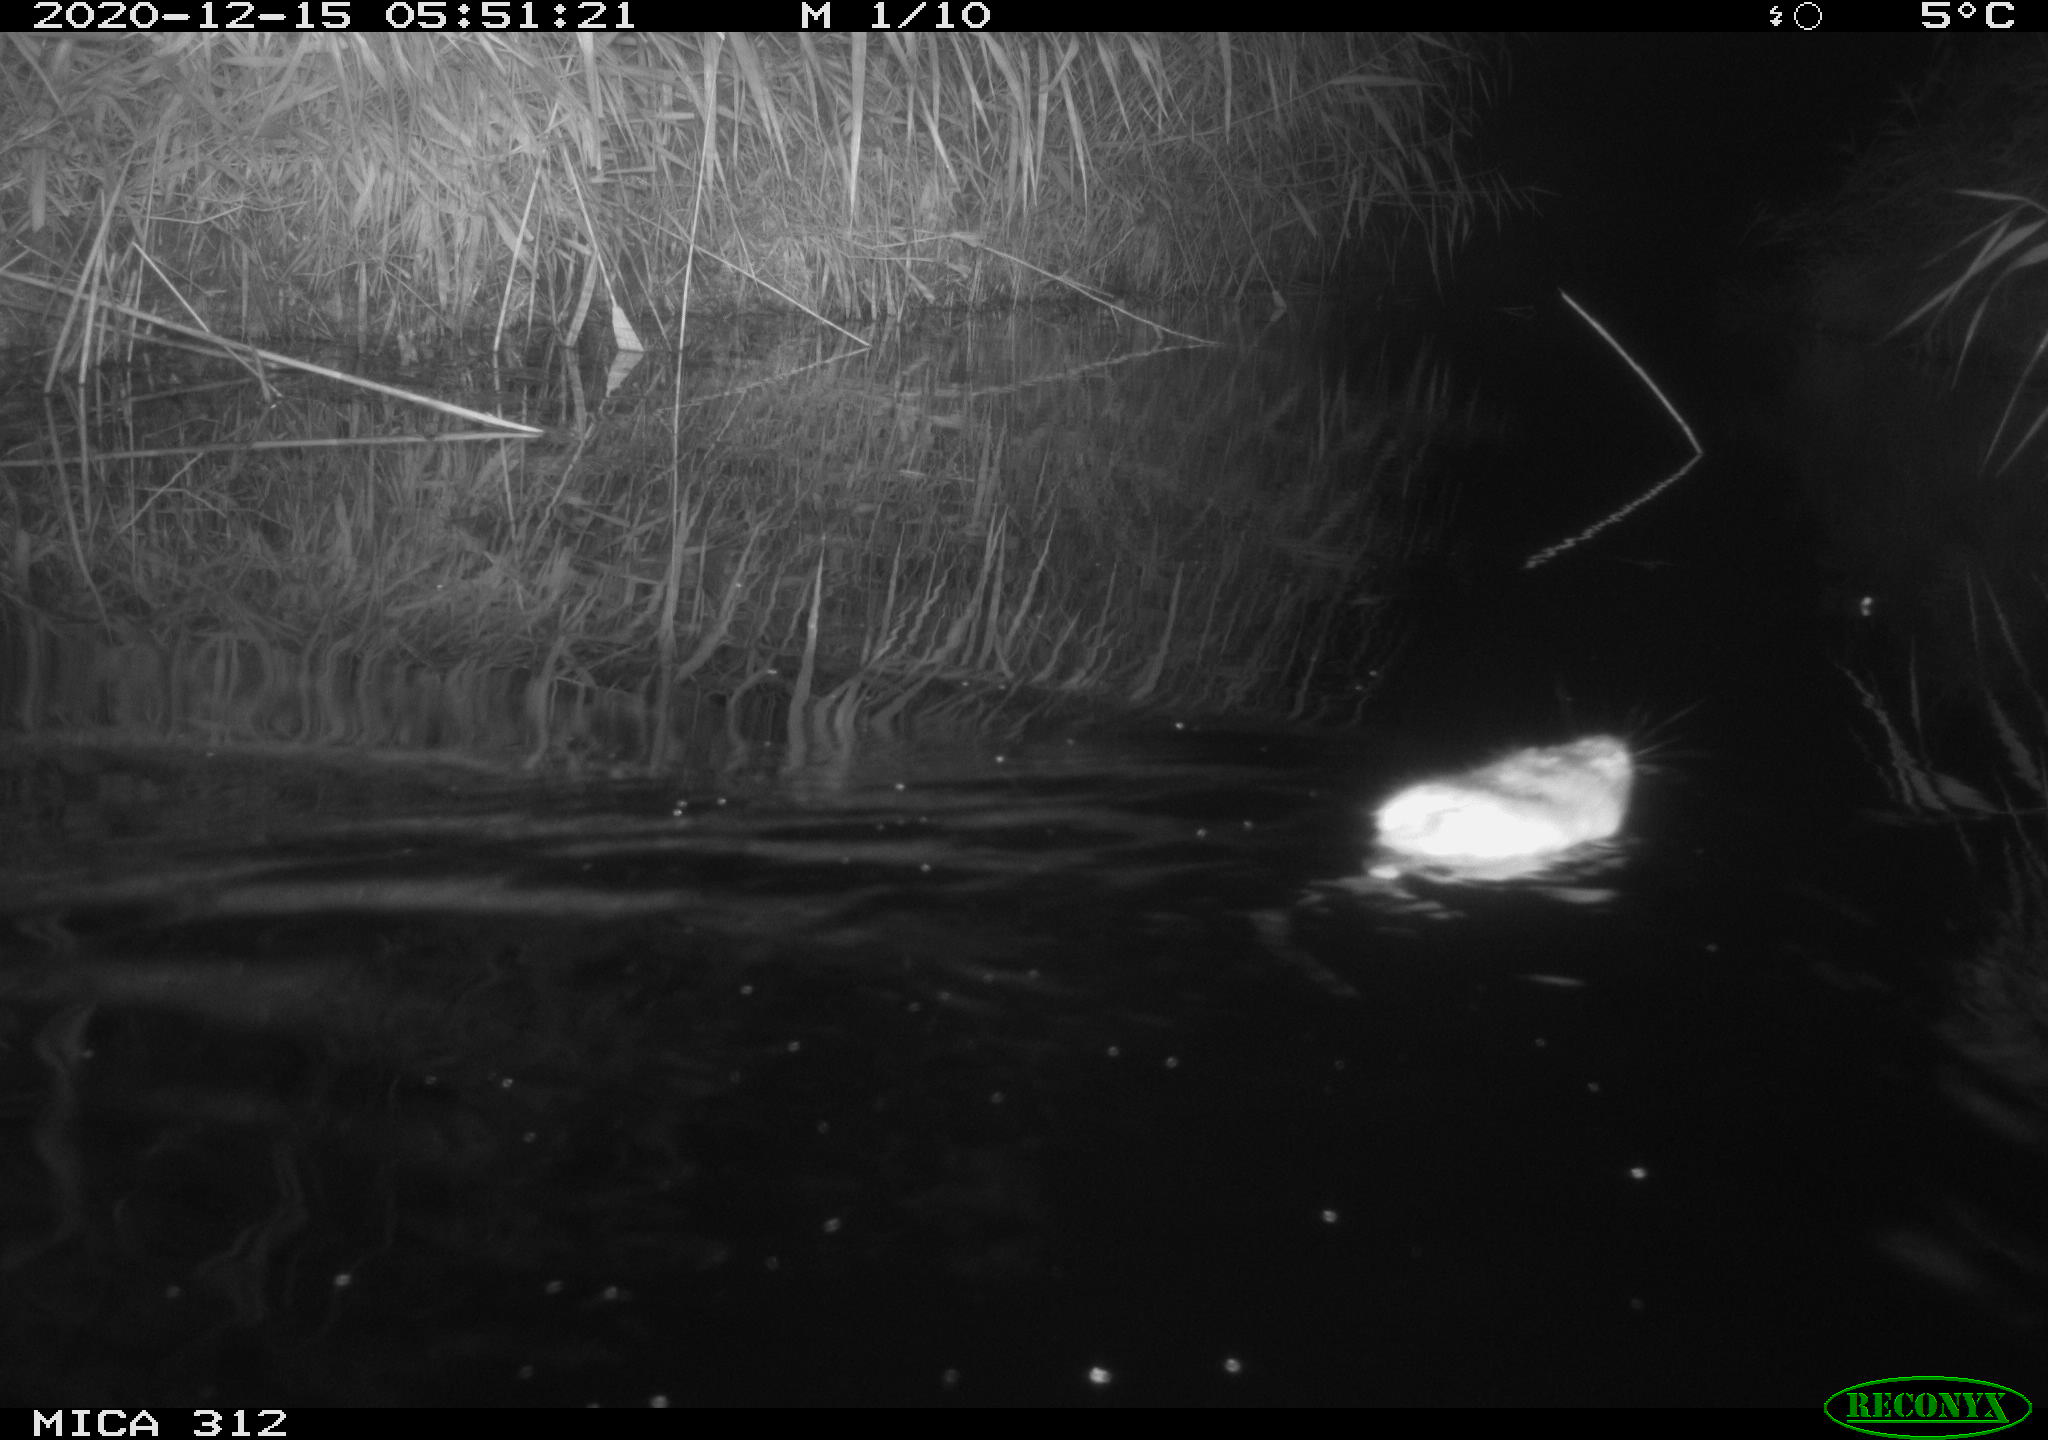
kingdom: Animalia
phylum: Chordata
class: Mammalia
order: Rodentia
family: Muridae
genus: Rattus
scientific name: Rattus norvegicus
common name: Brown rat
